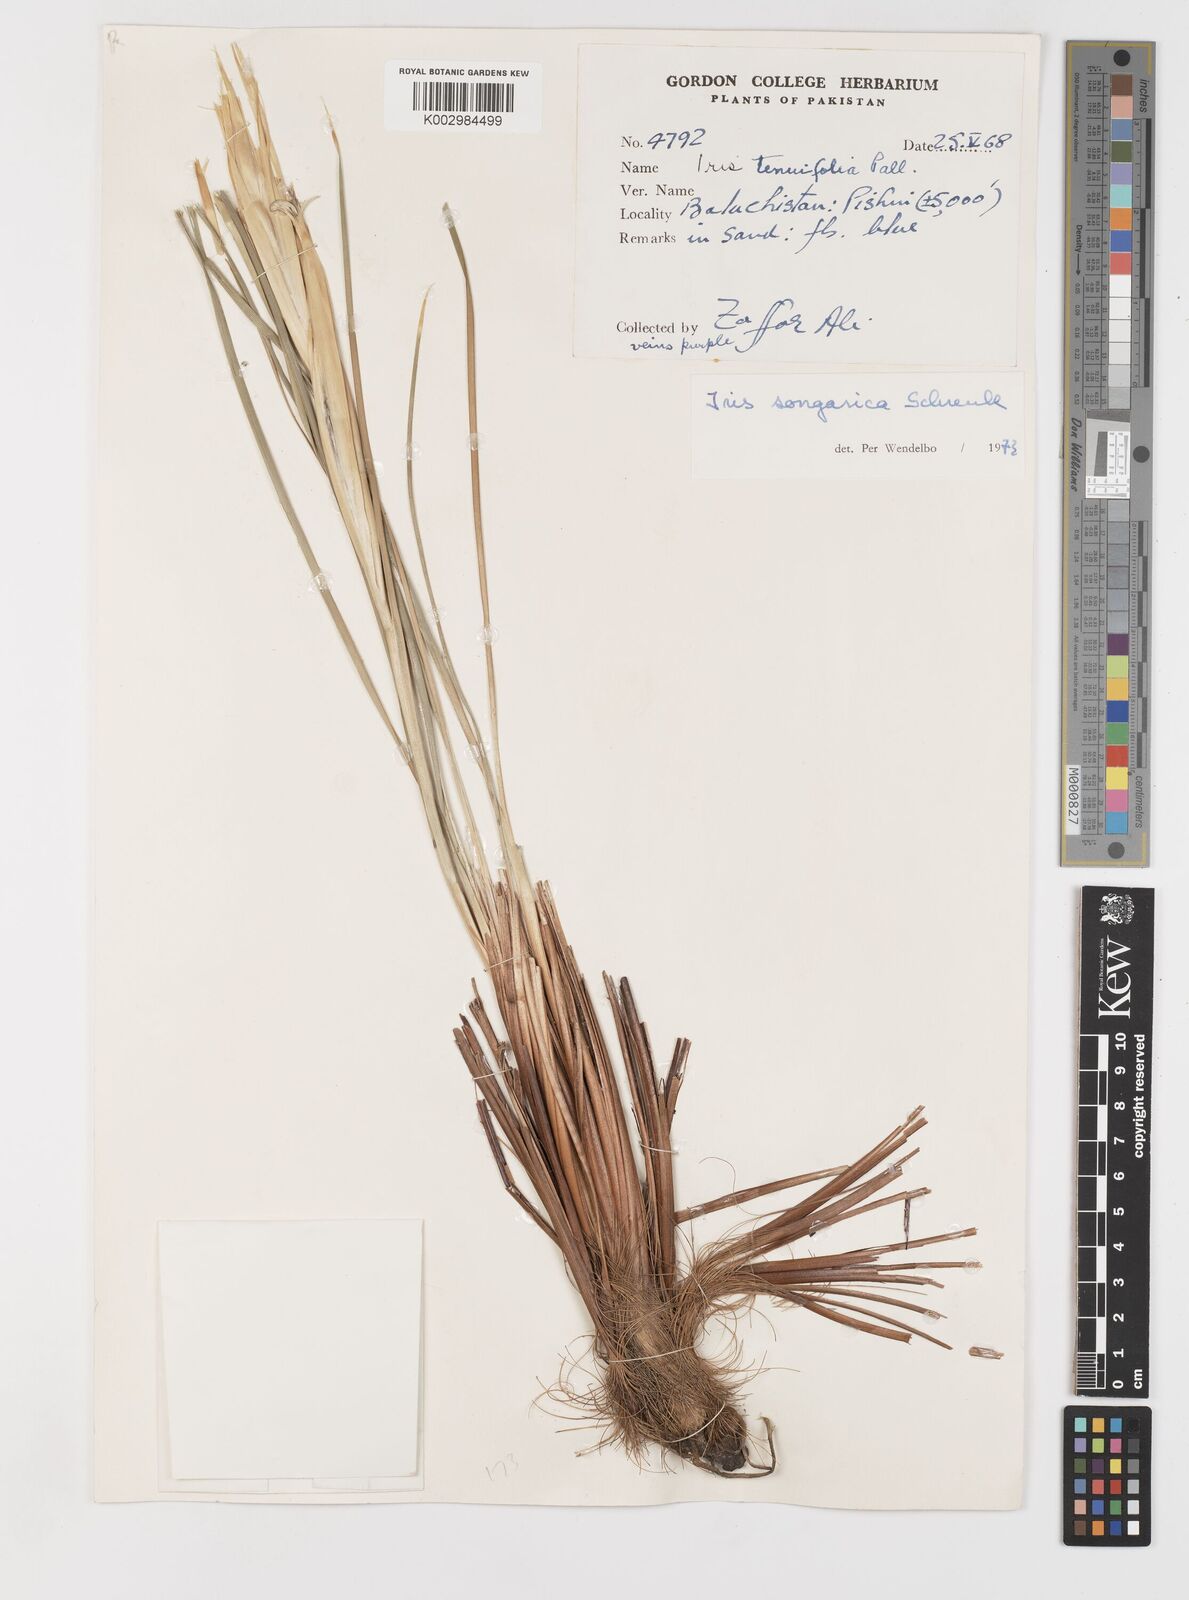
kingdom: Plantae
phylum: Tracheophyta
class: Liliopsida
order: Asparagales
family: Iridaceae
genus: Iris
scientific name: Iris songarica
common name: Songar iris
